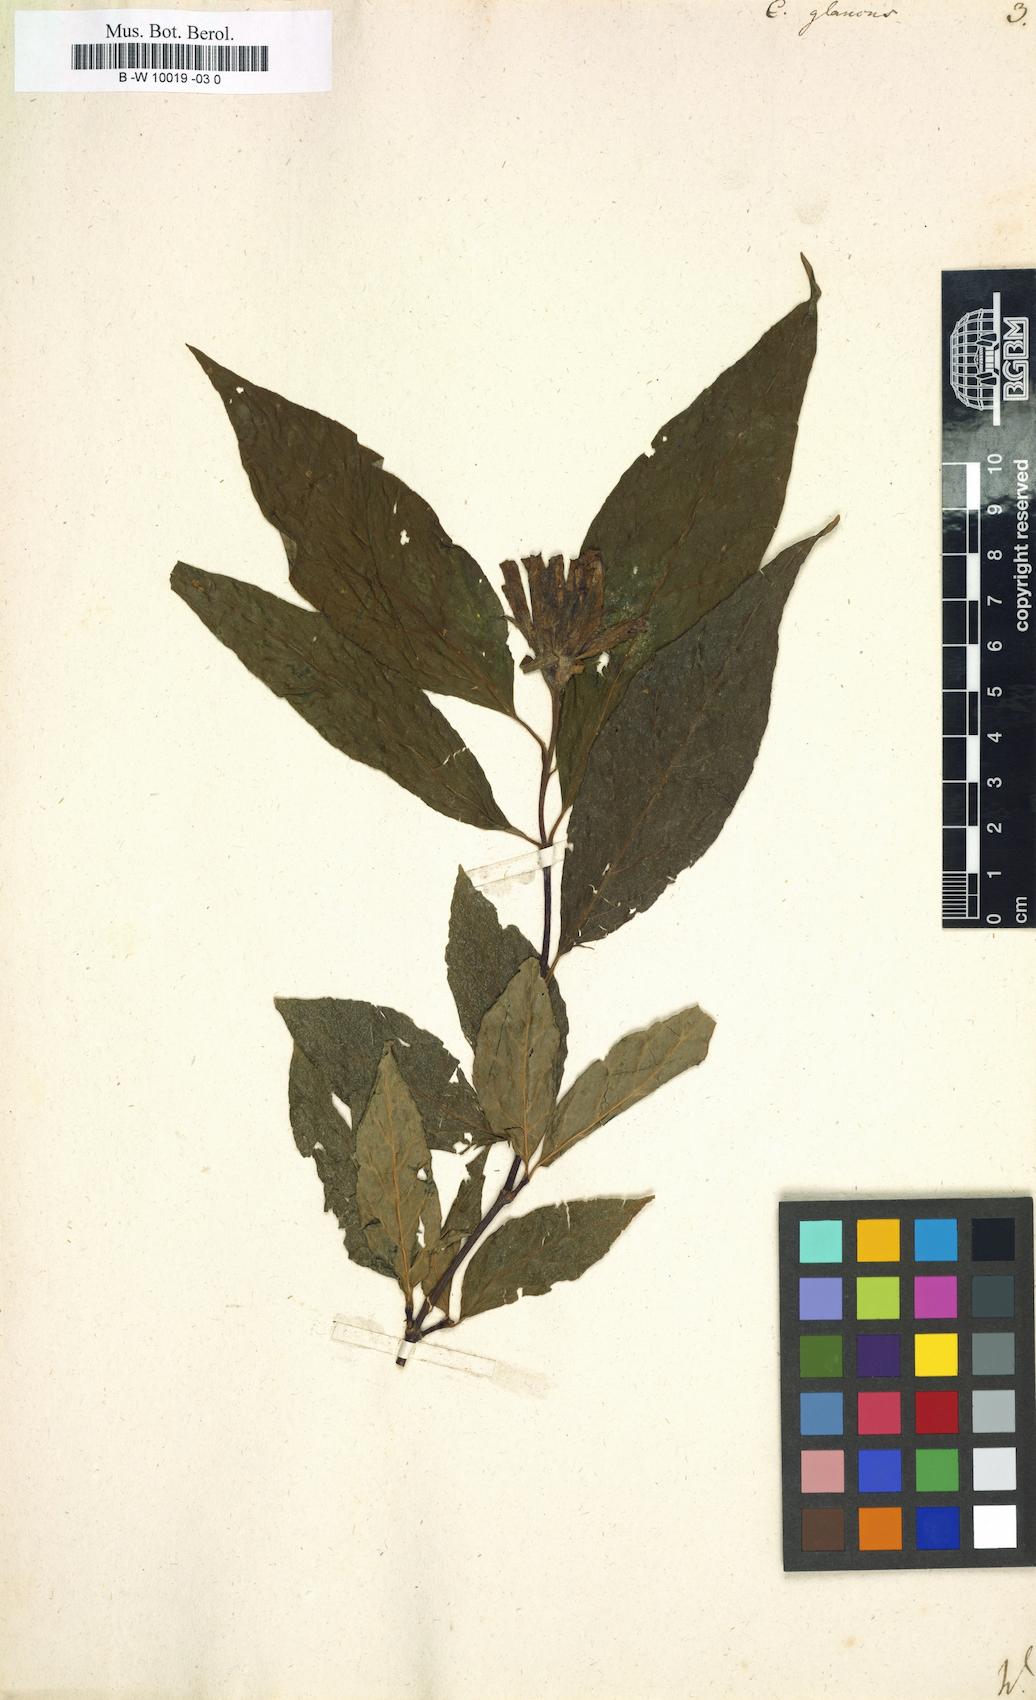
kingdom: Plantae
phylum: Tracheophyta
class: Magnoliopsida
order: Laurales
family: Calycanthaceae
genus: Calycanthus
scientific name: Calycanthus floridus
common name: Carolina-allspice
